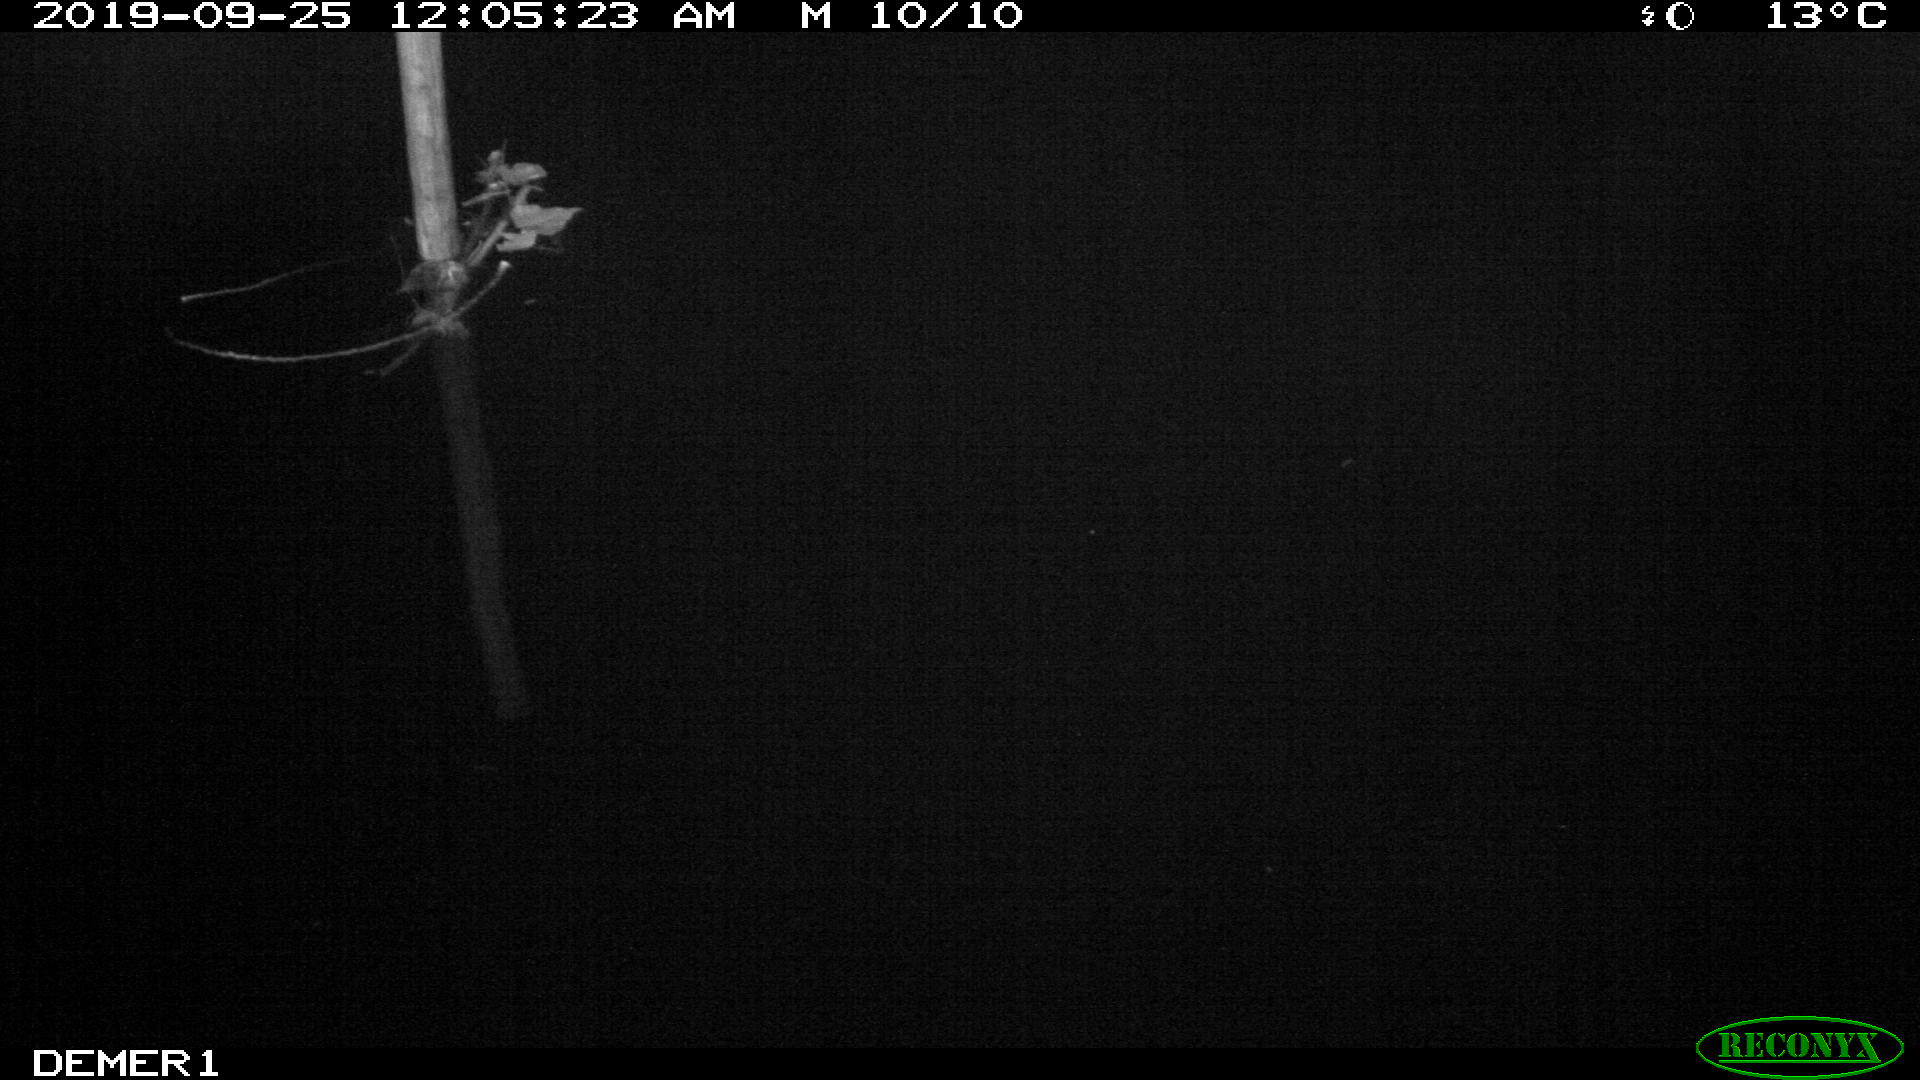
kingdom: Animalia
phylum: Chordata
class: Aves
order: Anseriformes
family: Anatidae
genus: Anas
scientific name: Anas platyrhynchos
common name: Mallard
